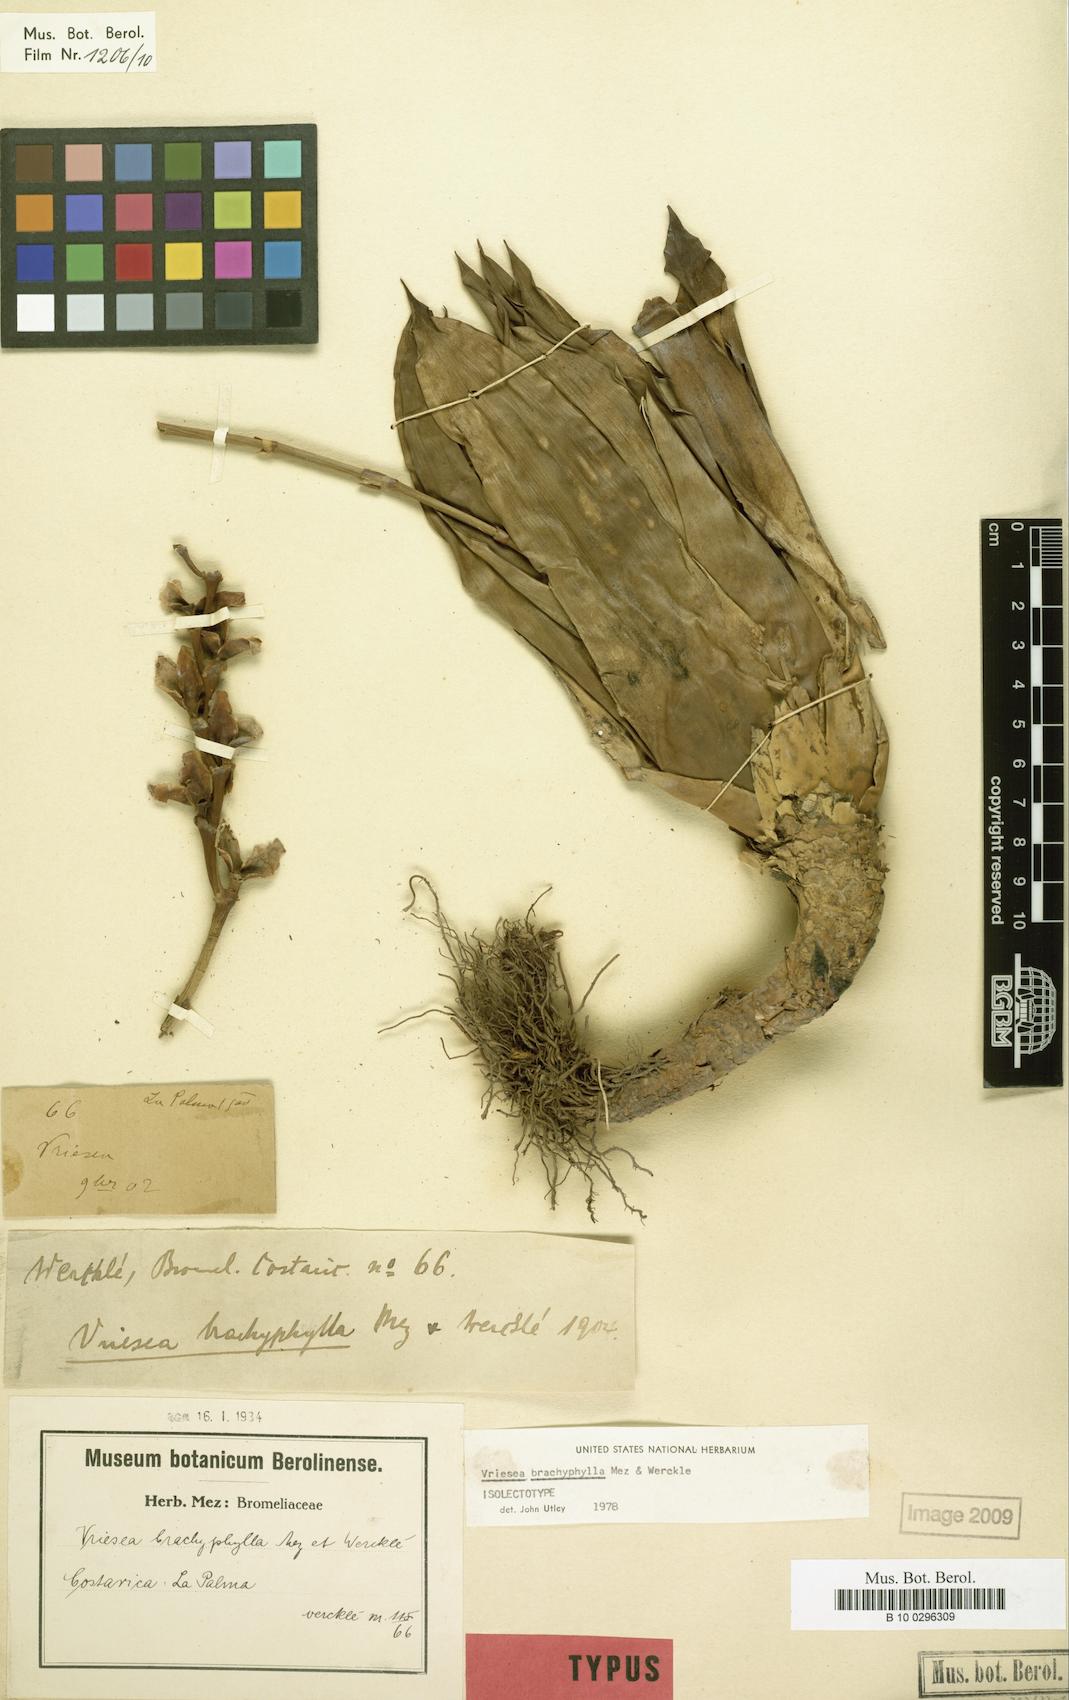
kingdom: Plantae
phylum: Tracheophyta
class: Liliopsida
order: Poales
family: Bromeliaceae
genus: Werauhia
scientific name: Werauhia viridiflora
